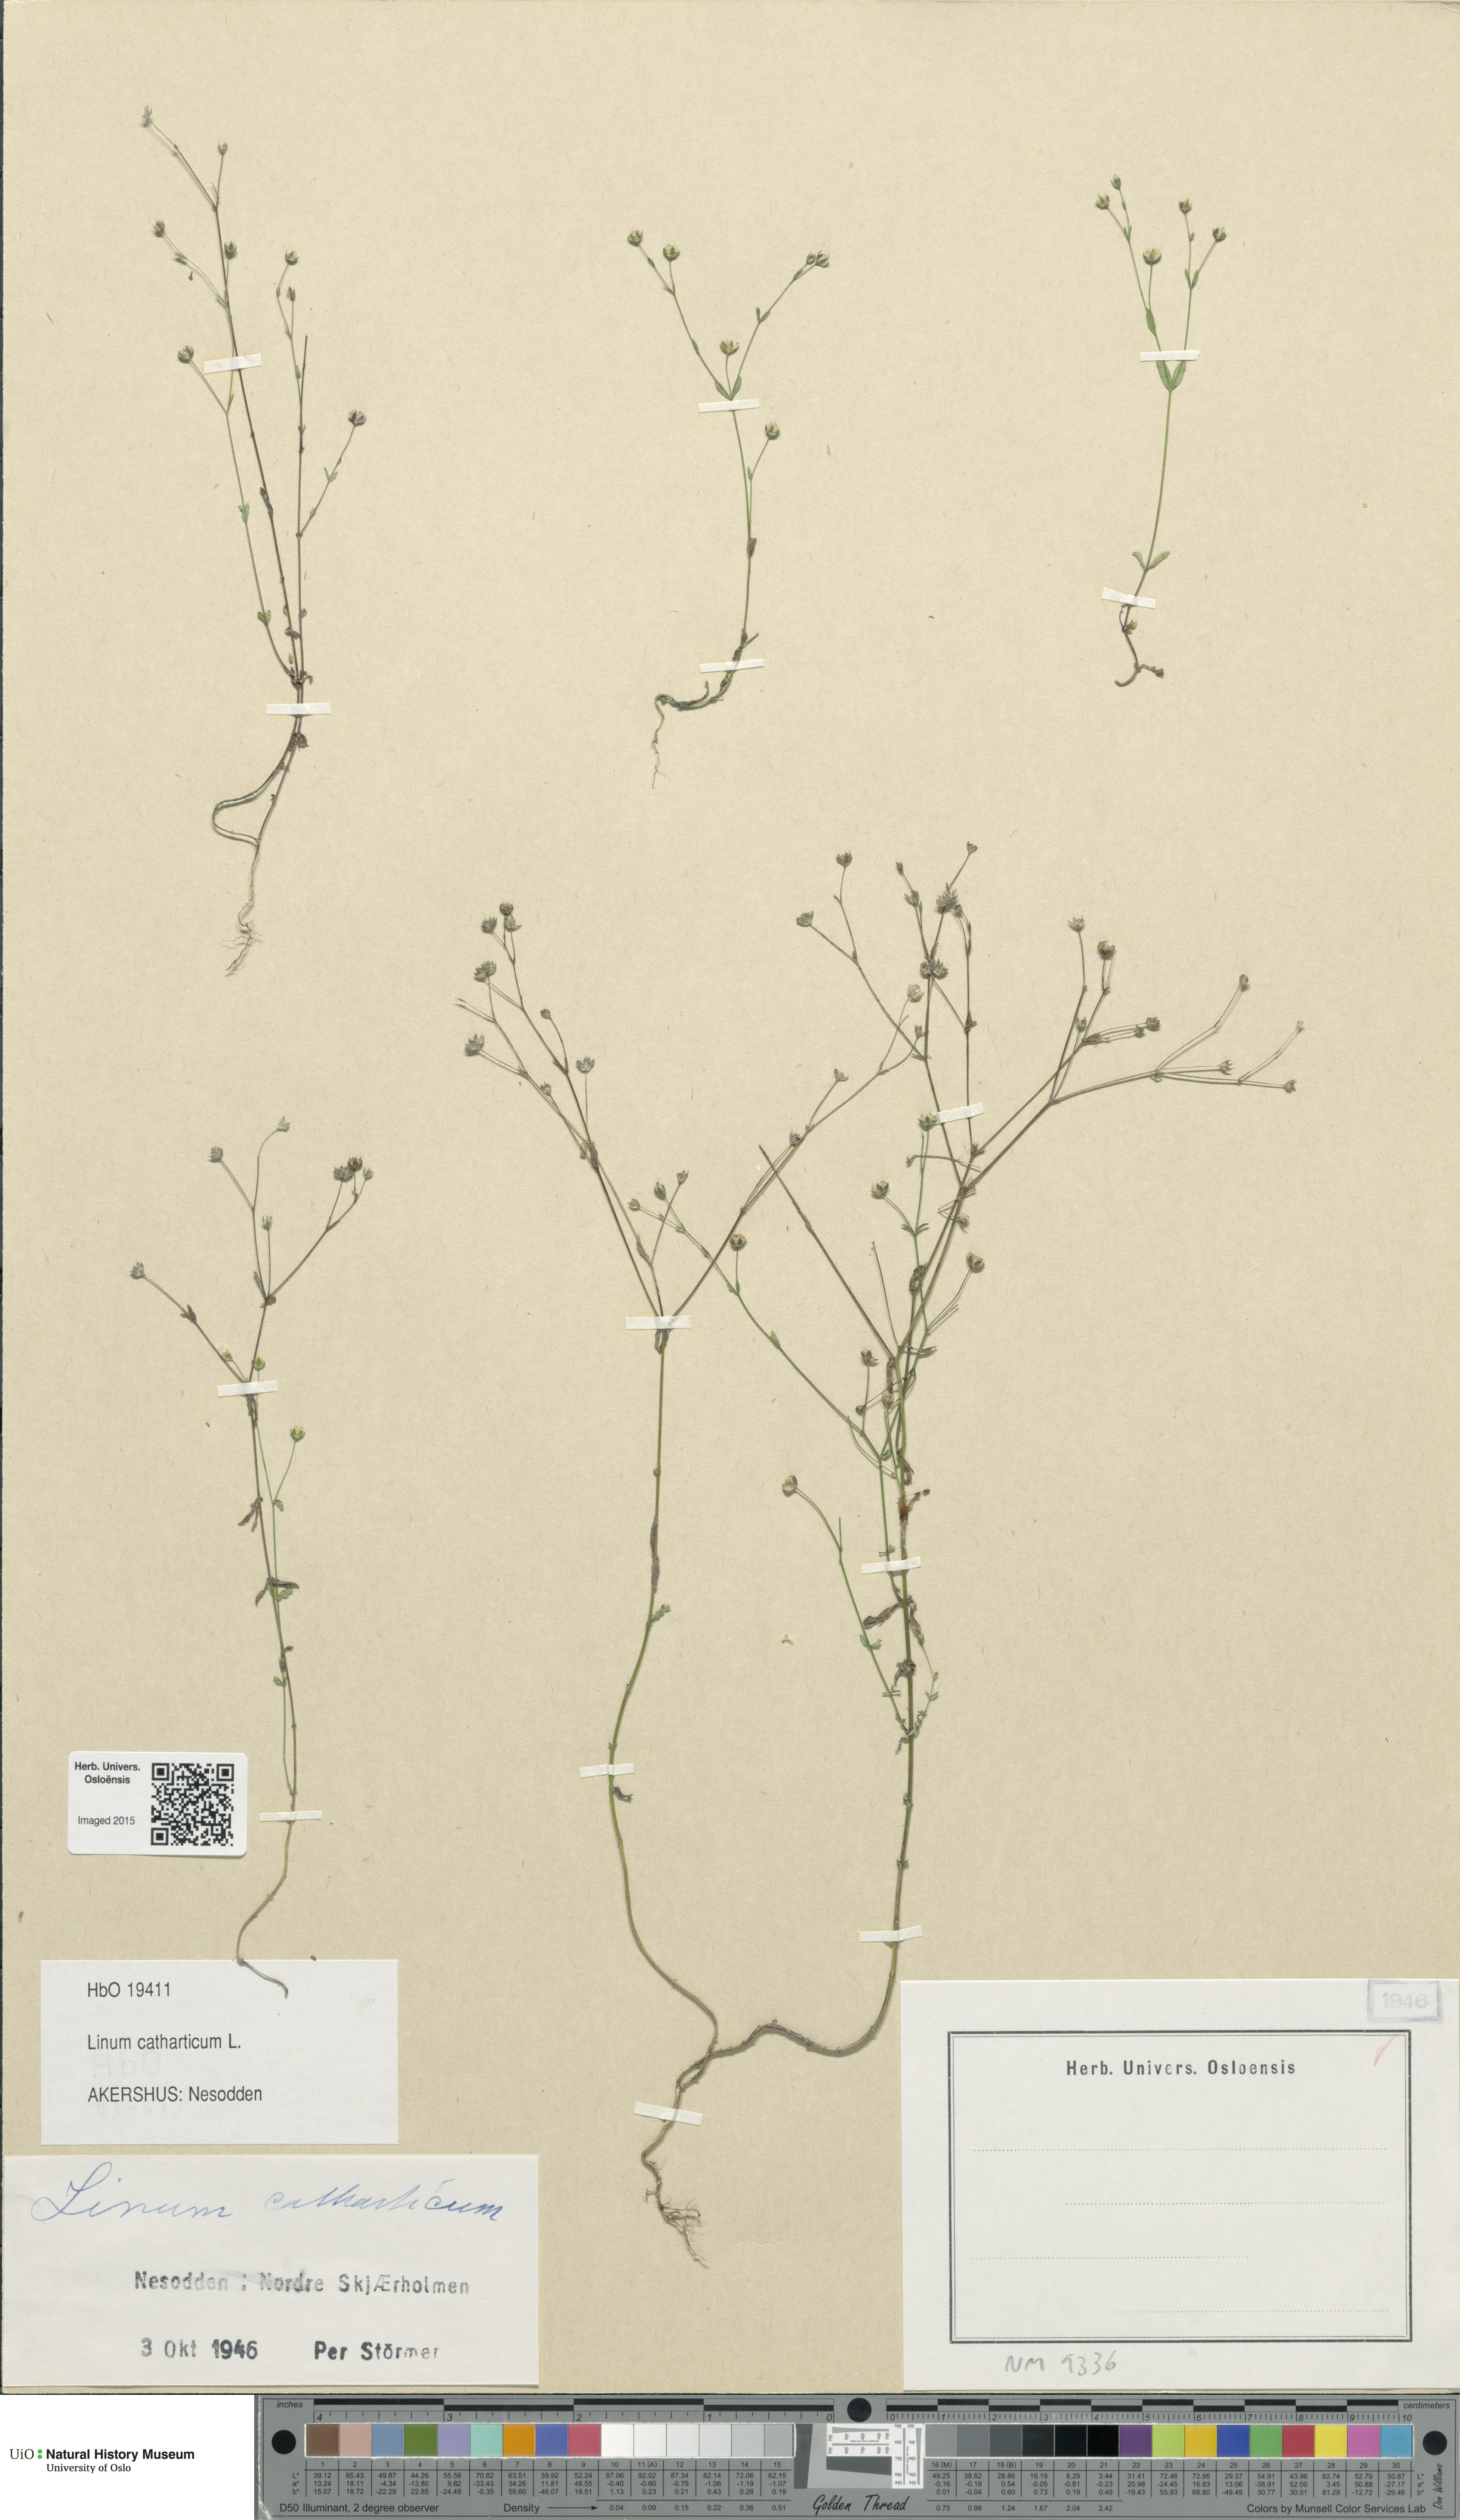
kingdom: Plantae
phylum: Tracheophyta
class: Magnoliopsida
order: Malpighiales
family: Linaceae
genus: Linum
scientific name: Linum catharticum
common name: Fairy flax
